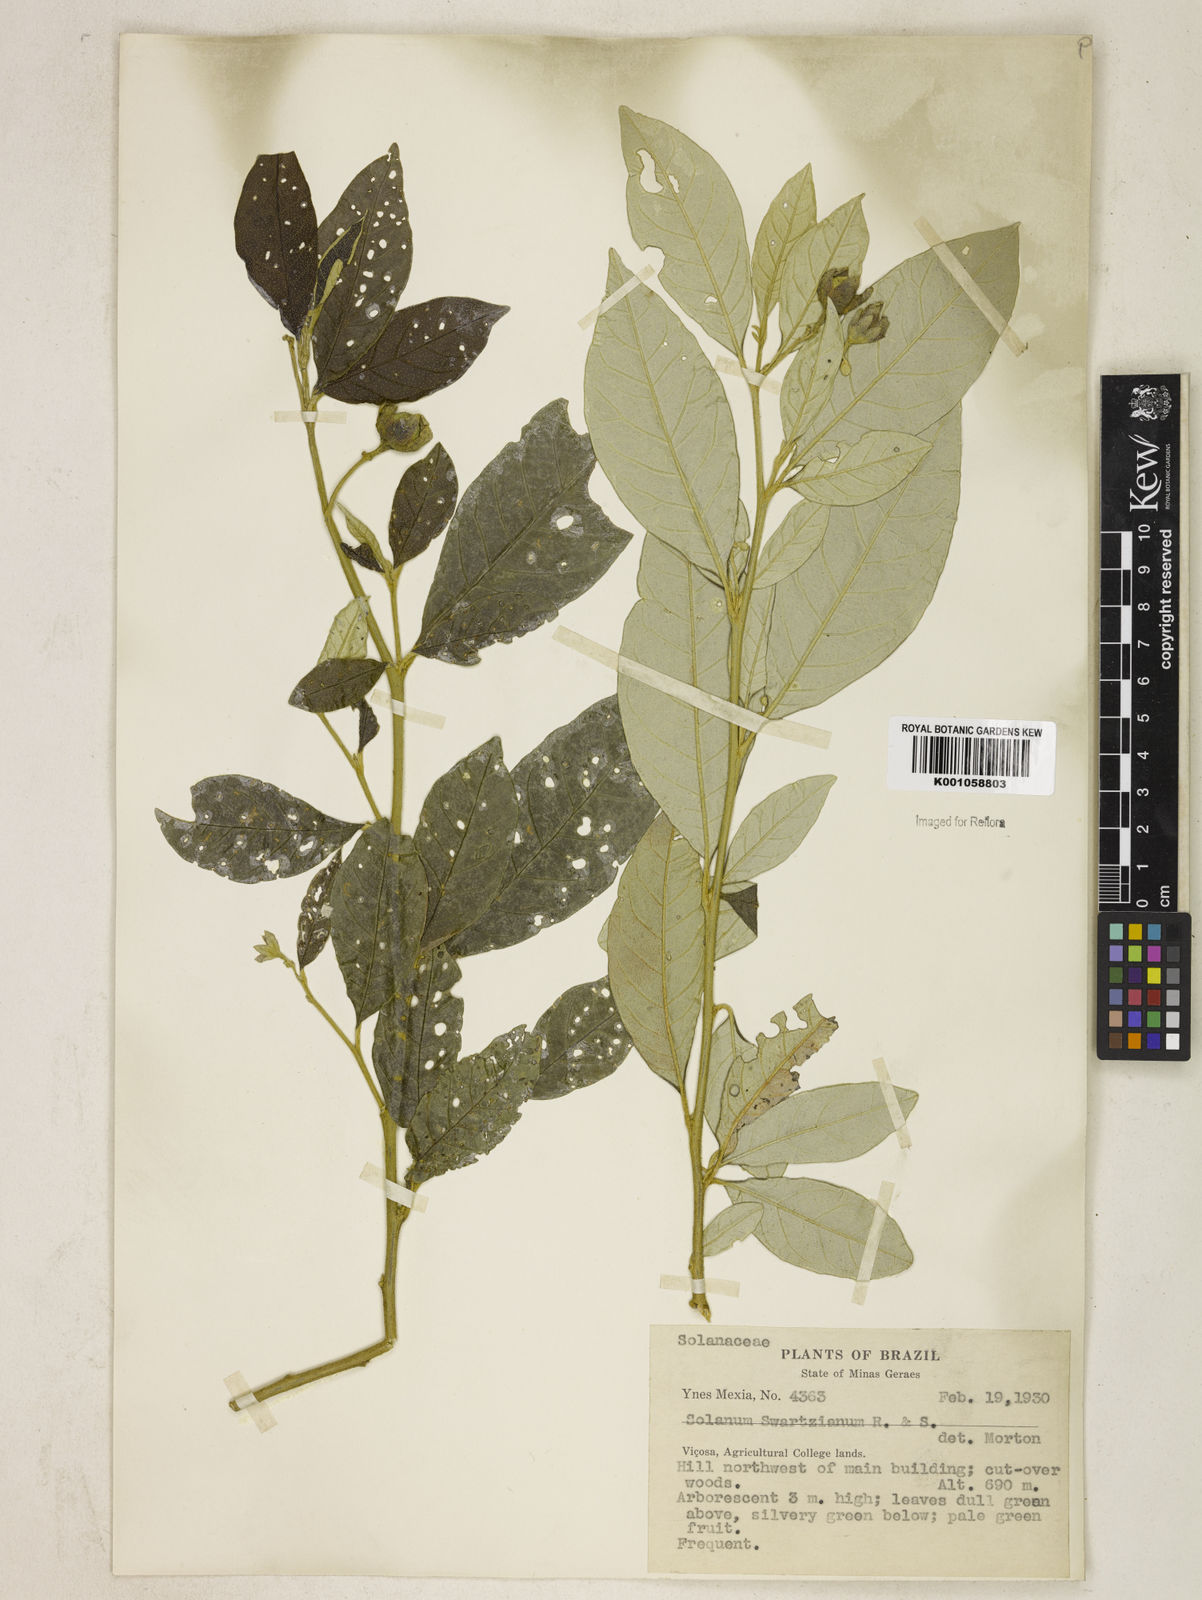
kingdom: Plantae
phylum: Tracheophyta
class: Magnoliopsida
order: Solanales
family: Solanaceae
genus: Solanum
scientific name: Solanum swartzianum
